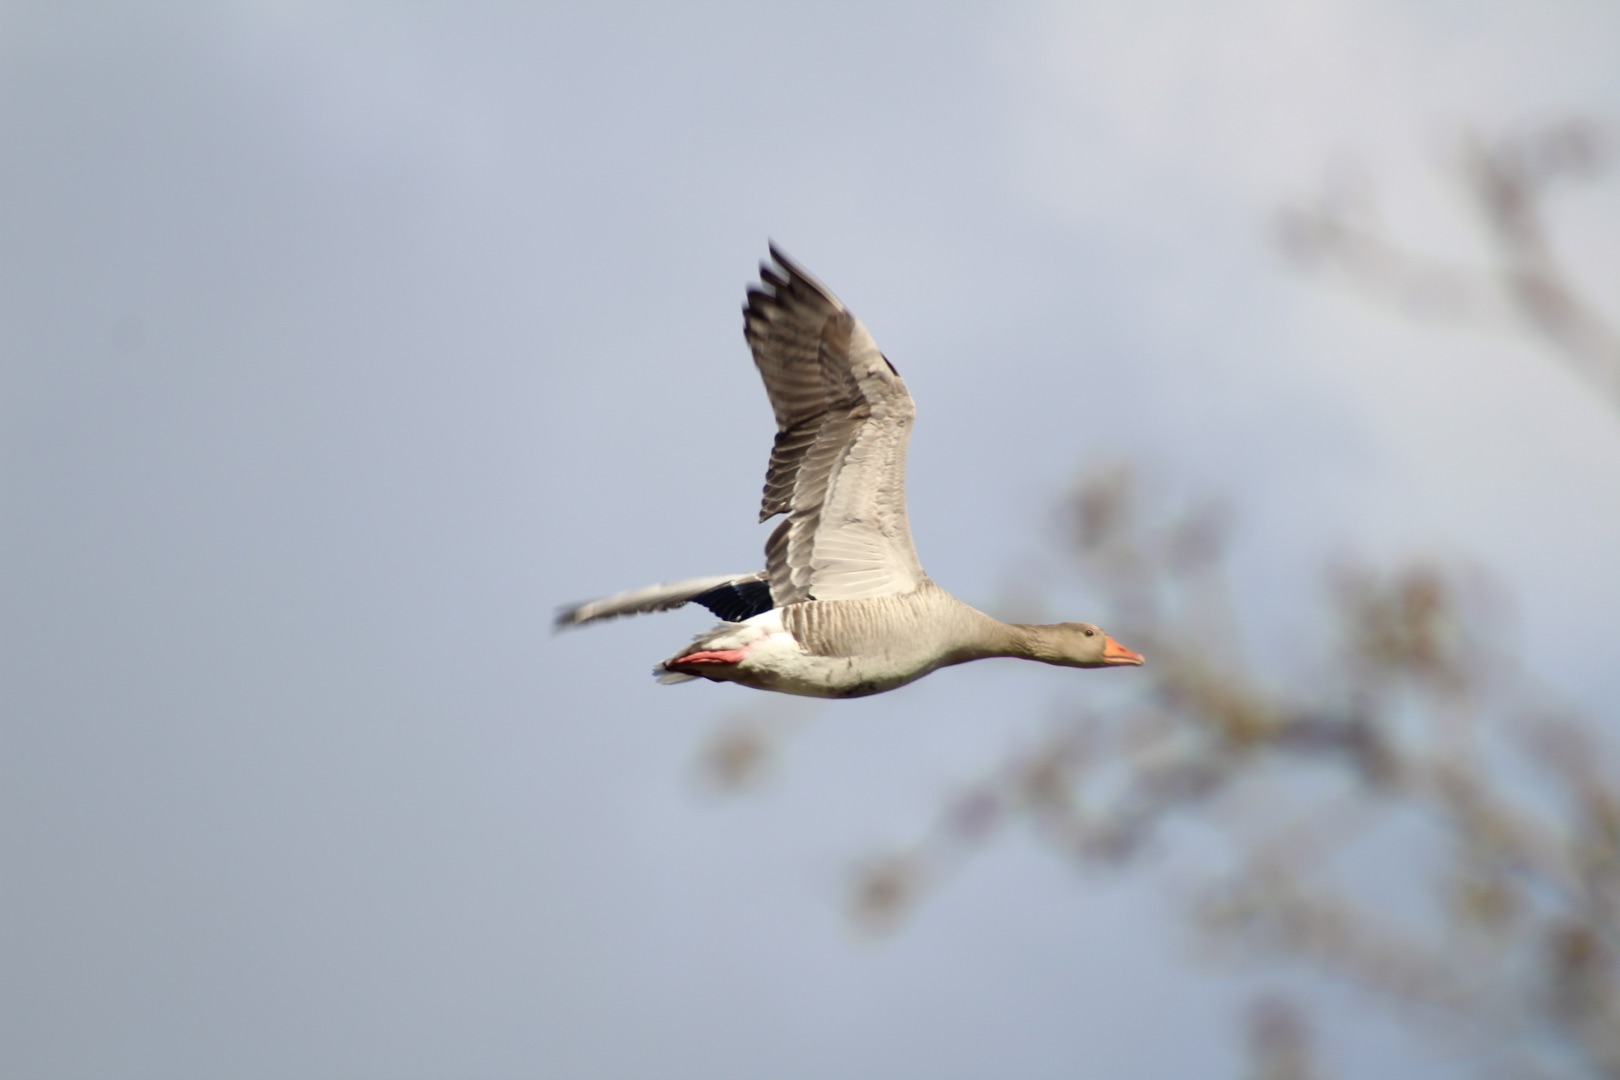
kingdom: Animalia
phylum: Chordata
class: Aves
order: Anseriformes
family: Anatidae
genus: Anser
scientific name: Anser anser
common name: Grågås
